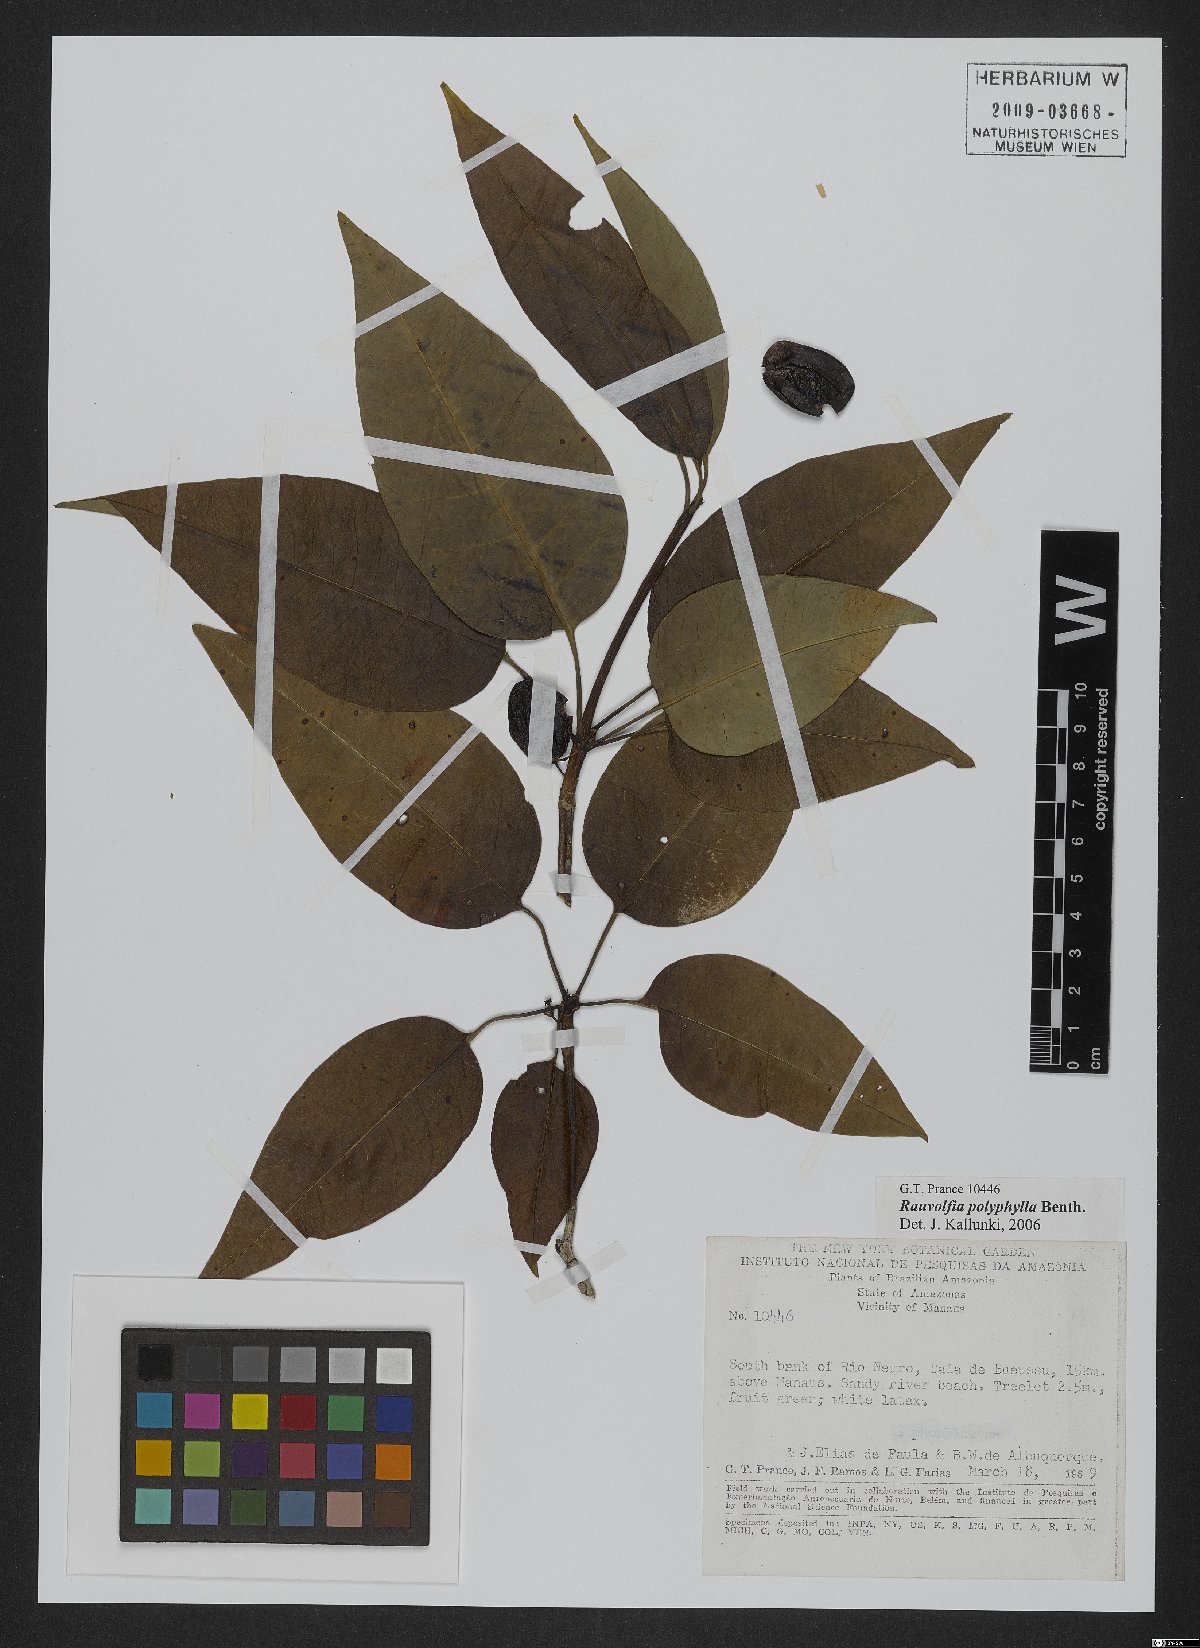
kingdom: Plantae
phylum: Tracheophyta
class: Magnoliopsida
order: Gentianales
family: Apocynaceae
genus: Rauvolfia
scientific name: Rauvolfia polyphylla
